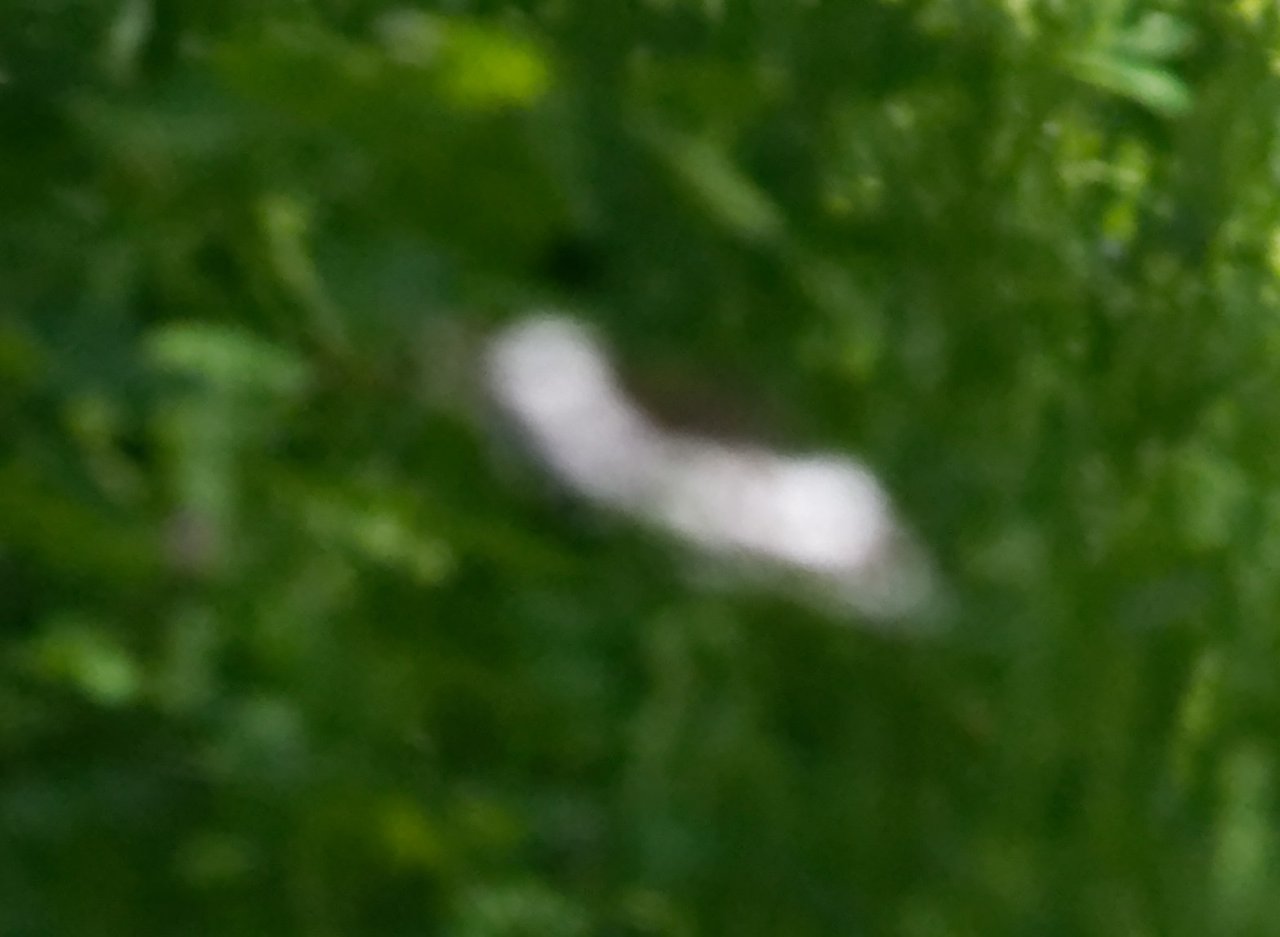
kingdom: Animalia
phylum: Arthropoda
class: Insecta
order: Lepidoptera
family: Nymphalidae
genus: Limenitis
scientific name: Limenitis arthemis
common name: Red-spotted Admiral
